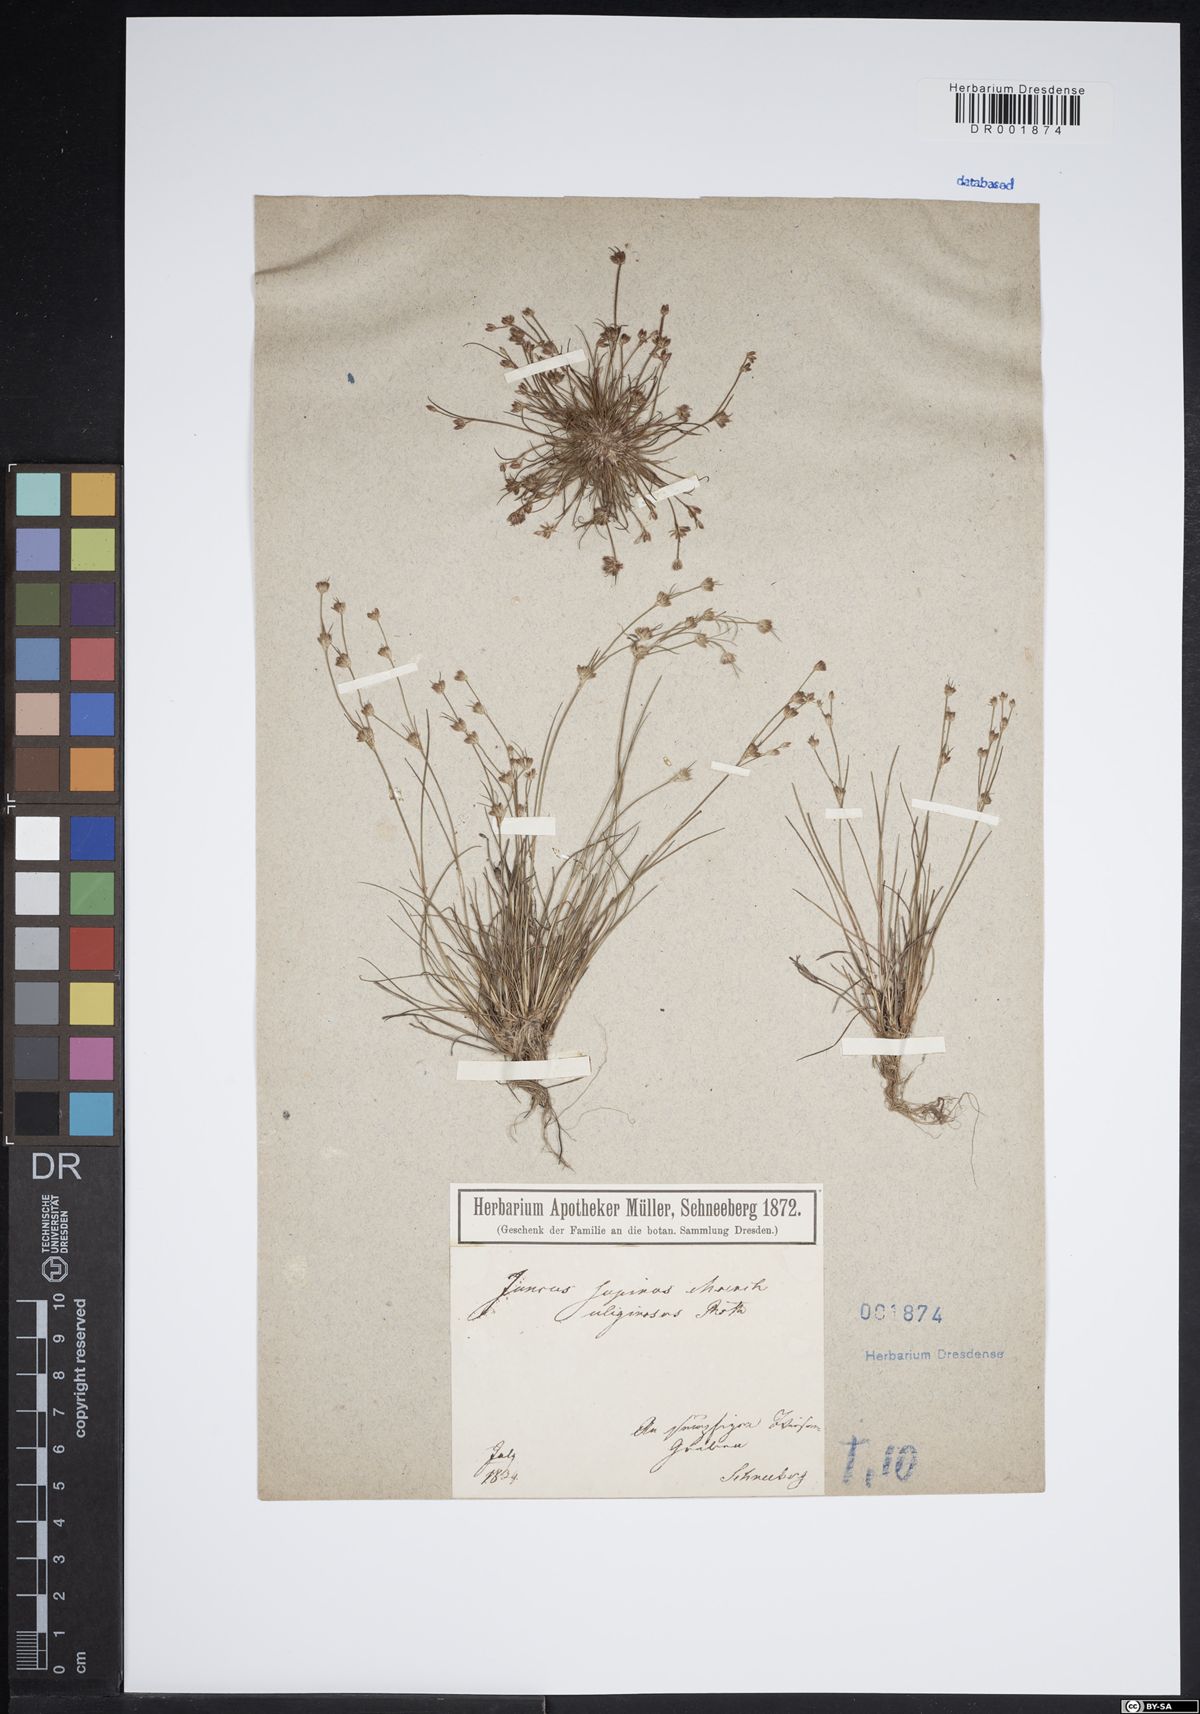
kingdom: Plantae
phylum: Tracheophyta
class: Liliopsida
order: Poales
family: Juncaceae
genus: Juncus
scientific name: Juncus bulbosus
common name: Bulbous rush
